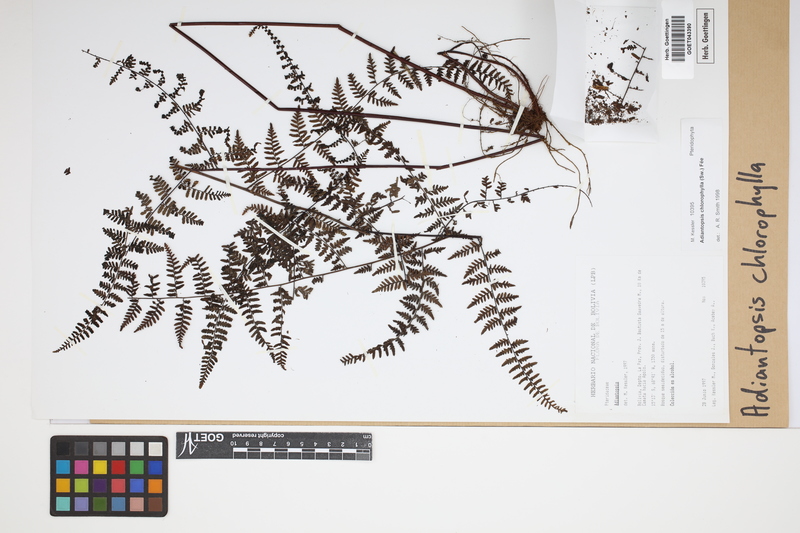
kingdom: Plantae
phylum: Tracheophyta
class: Polypodiopsida
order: Polypodiales
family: Pteridaceae
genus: Adiantopsis
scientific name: Adiantopsis chlorophylla
